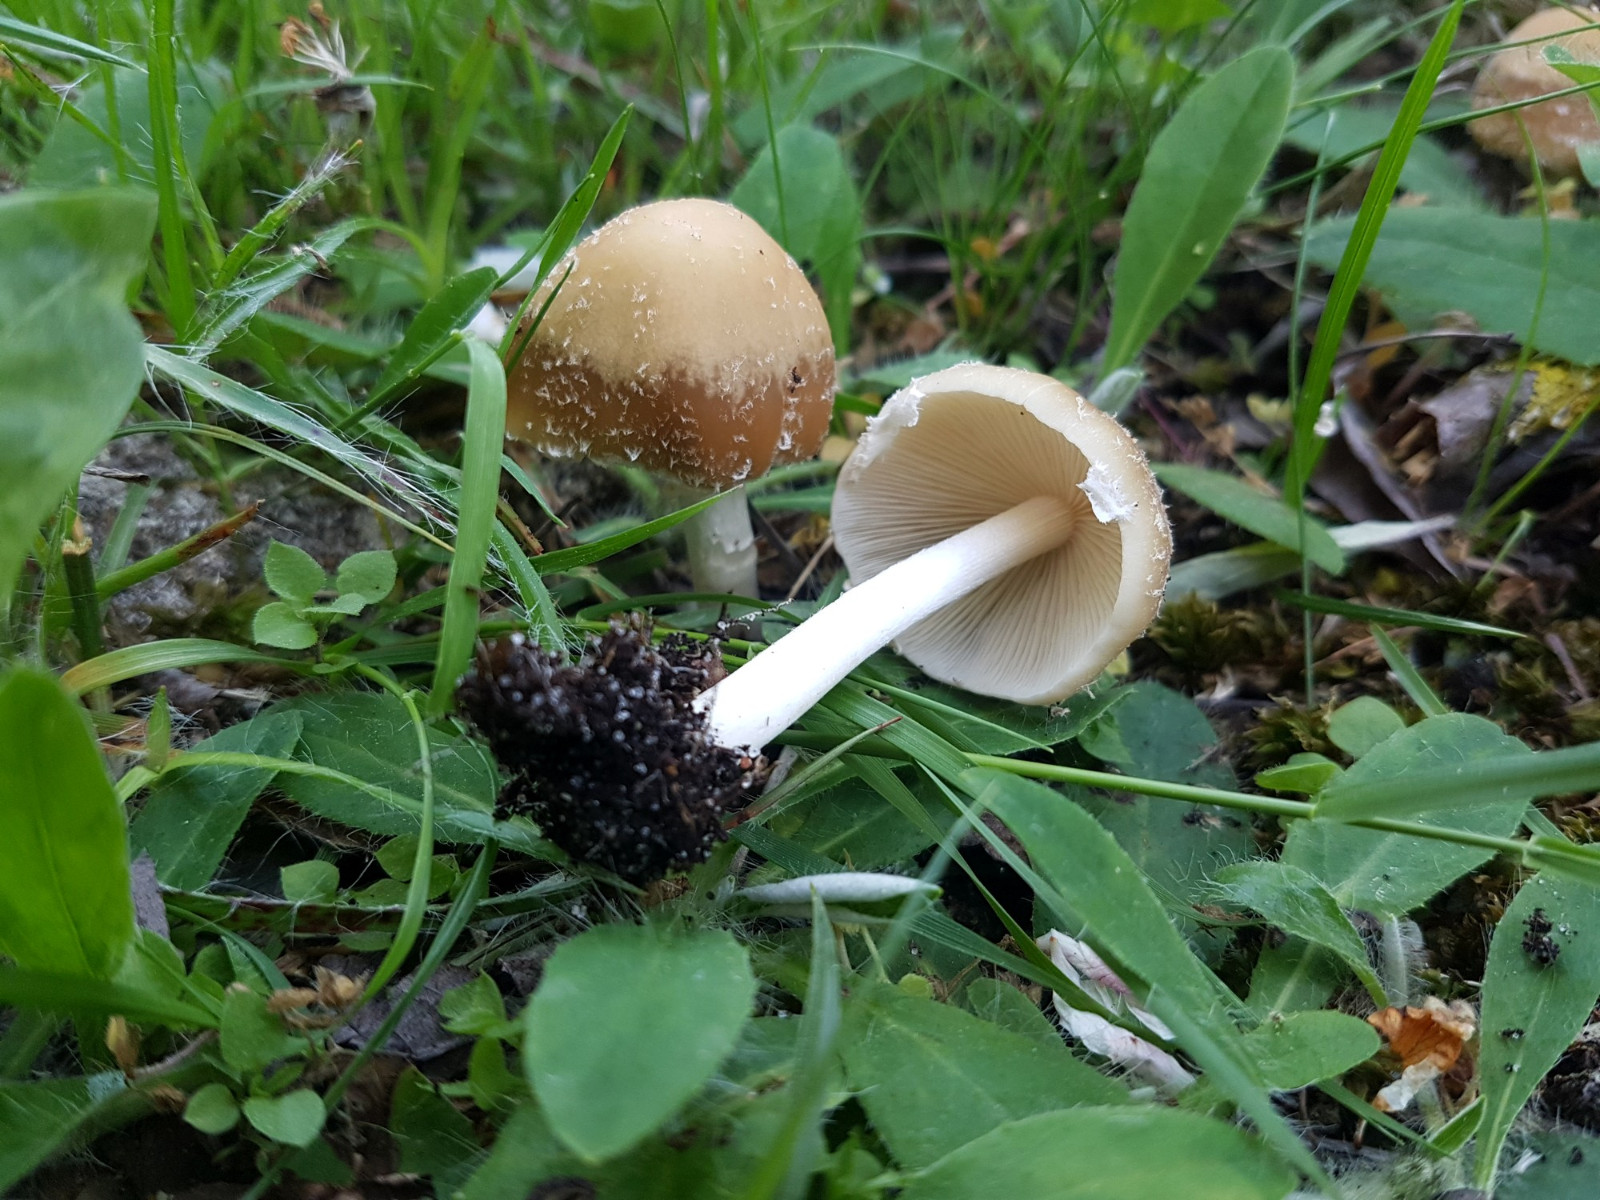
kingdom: Fungi
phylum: Basidiomycota
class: Agaricomycetes
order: Agaricales
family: Psathyrellaceae
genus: Candolleomyces
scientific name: Candolleomyces candolleanus
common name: Candolles mørkhat
